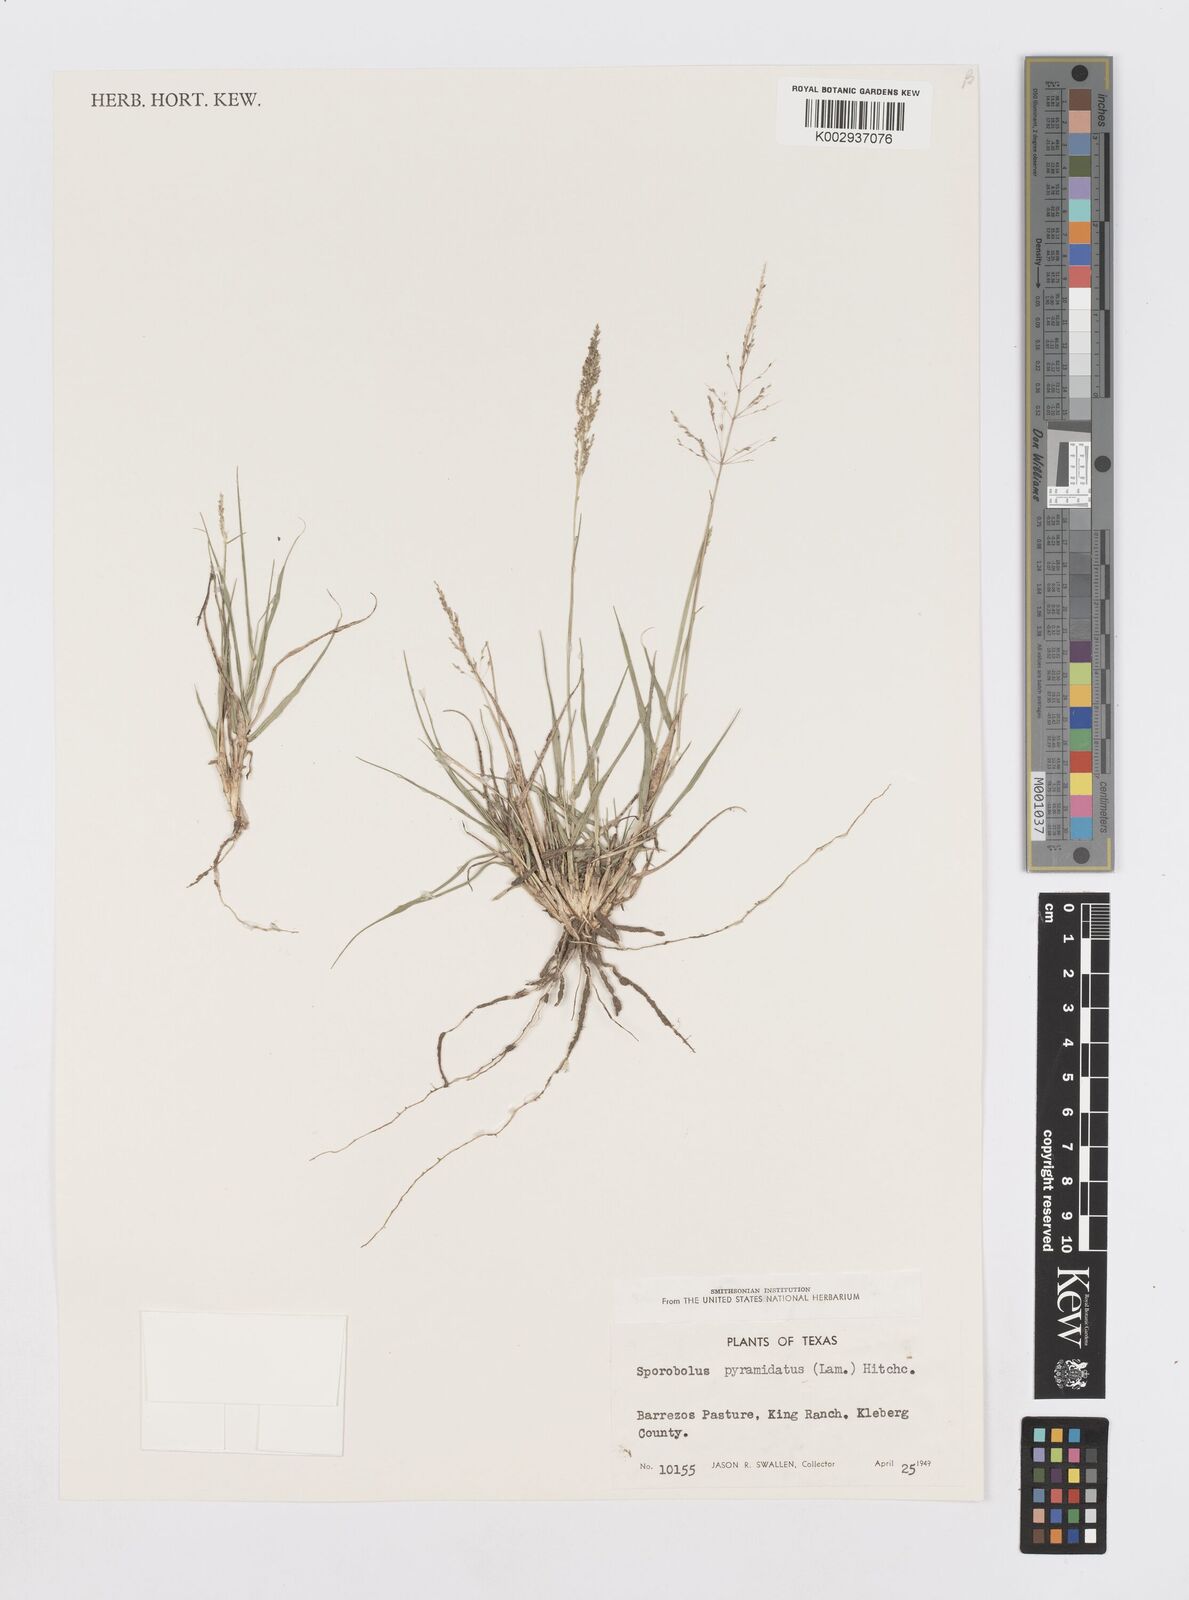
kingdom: Plantae
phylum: Tracheophyta
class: Liliopsida
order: Poales
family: Poaceae
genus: Sporobolus
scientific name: Sporobolus pyramidatus
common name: Whorled dropseed
